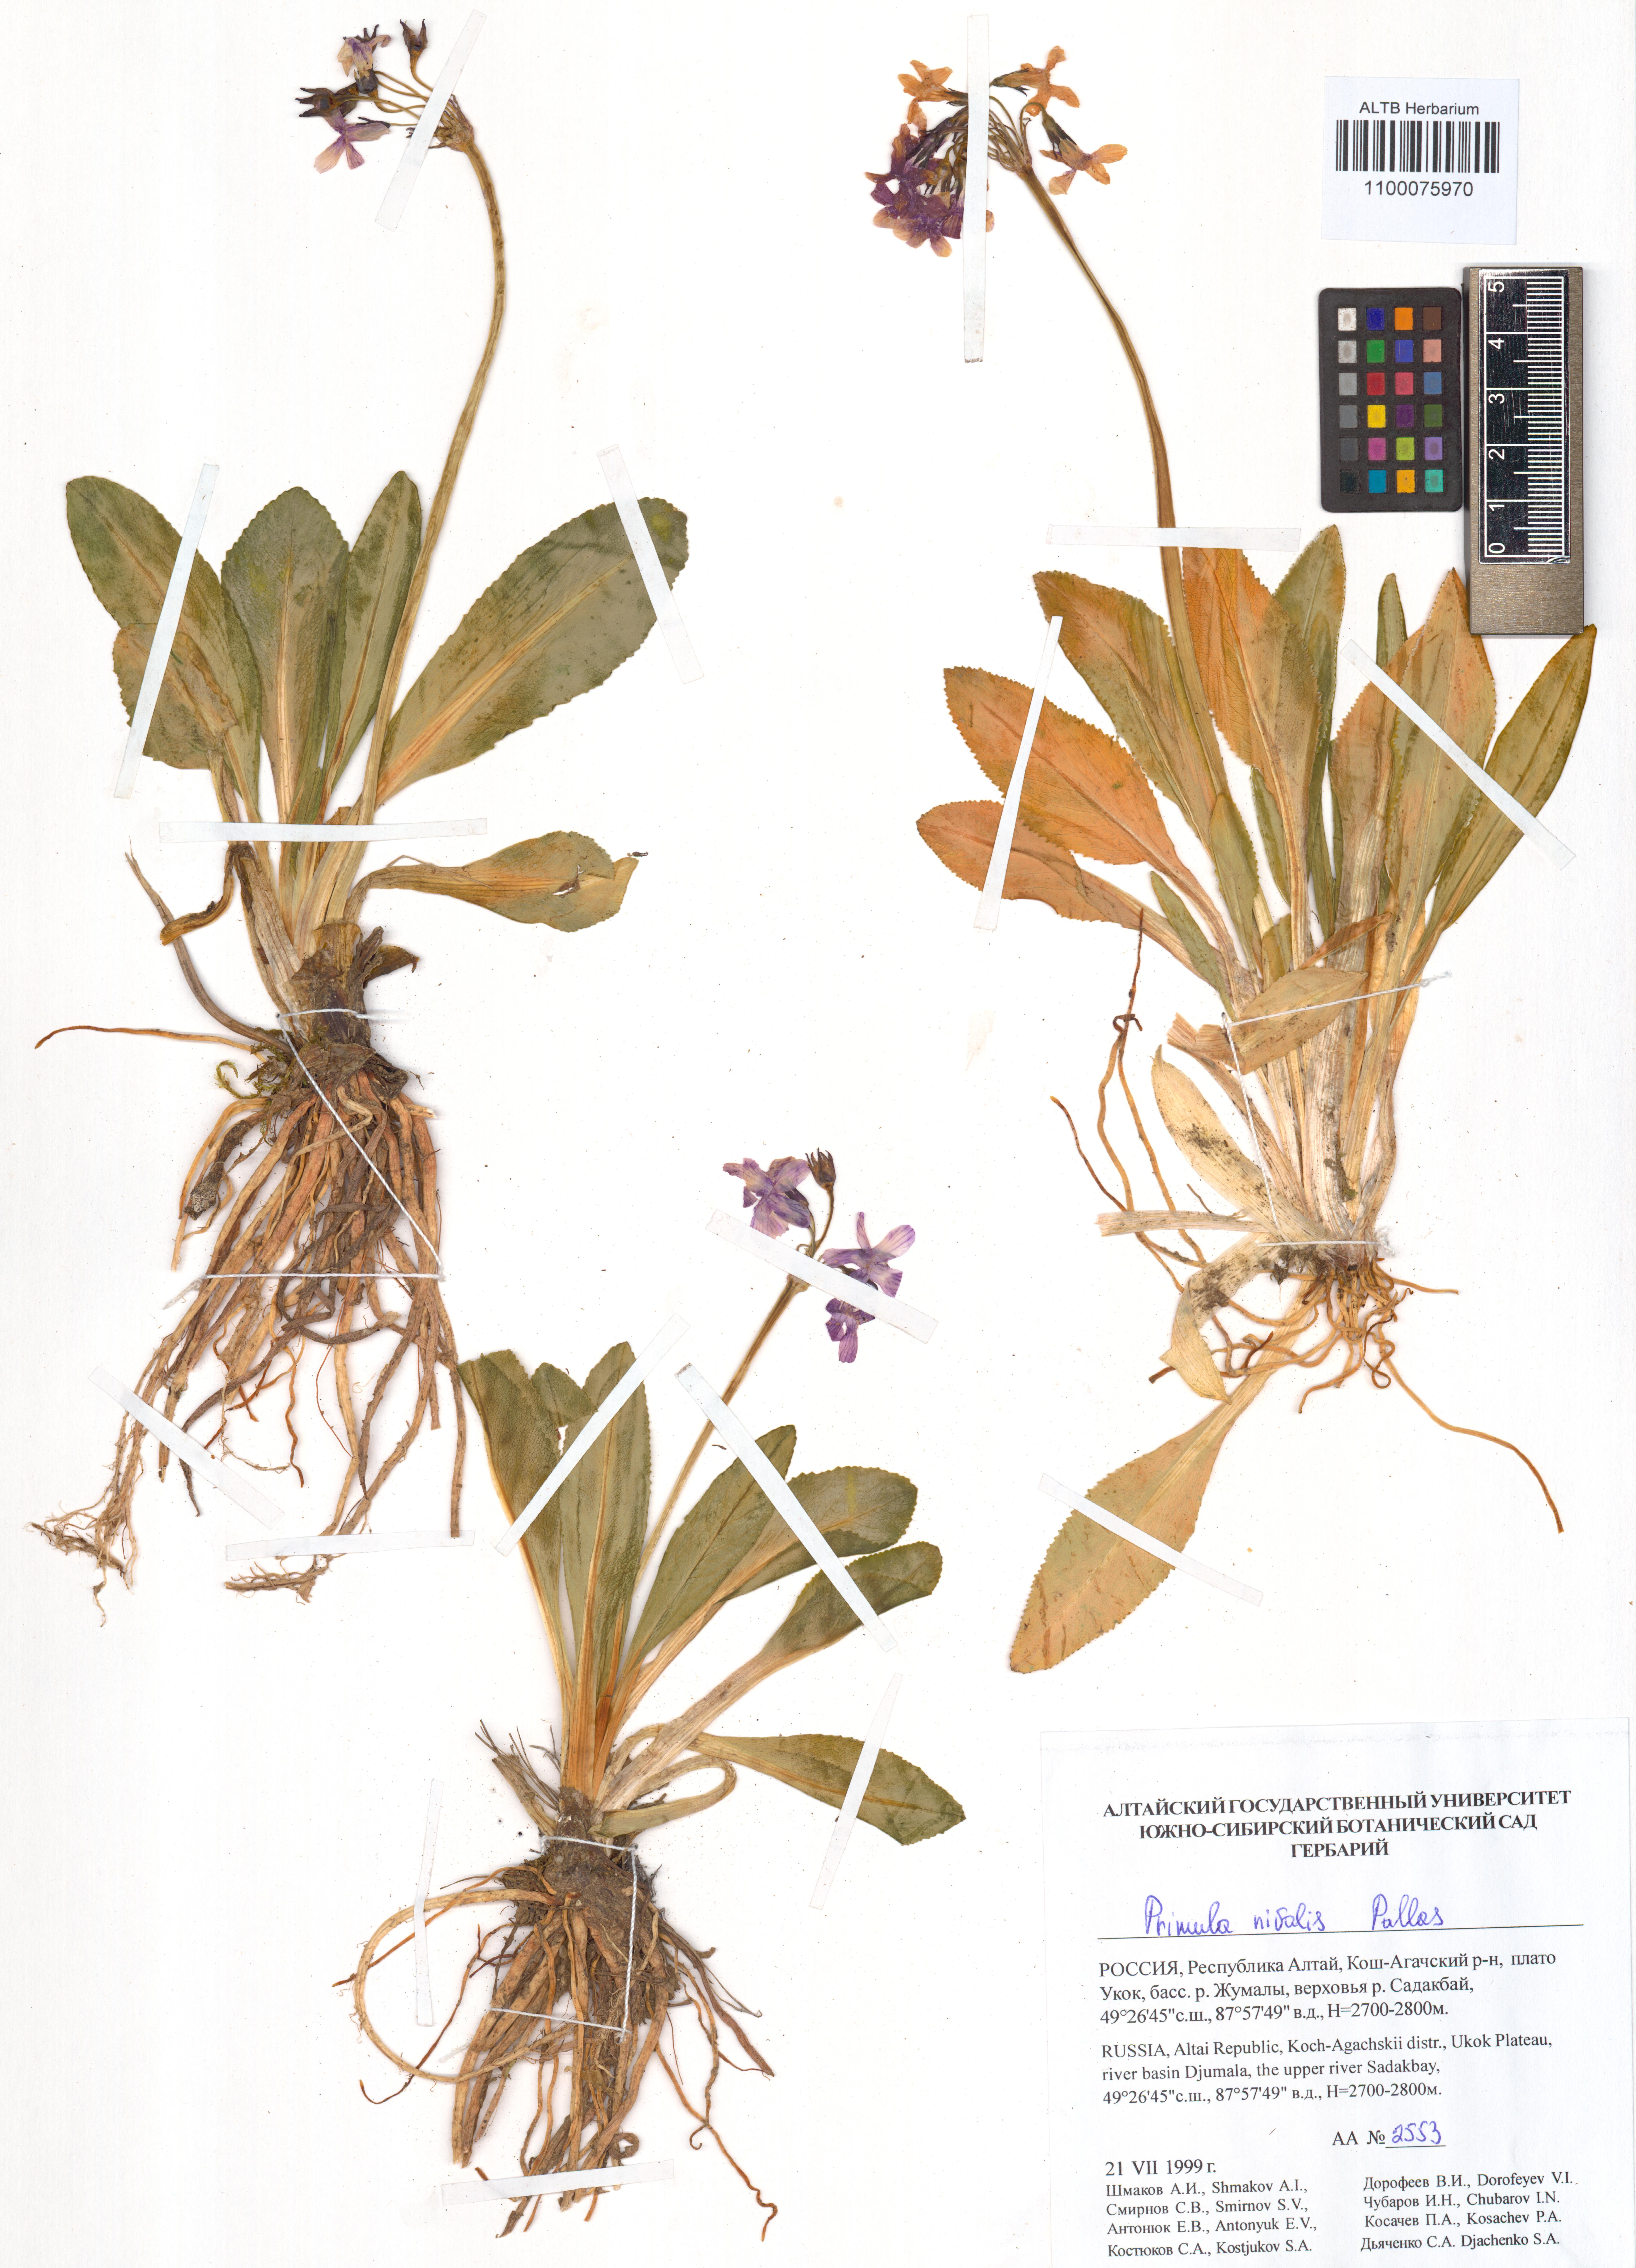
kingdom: Plantae
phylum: Tracheophyta
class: Magnoliopsida
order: Ericales
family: Primulaceae
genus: Primula
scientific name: Primula nivalis
